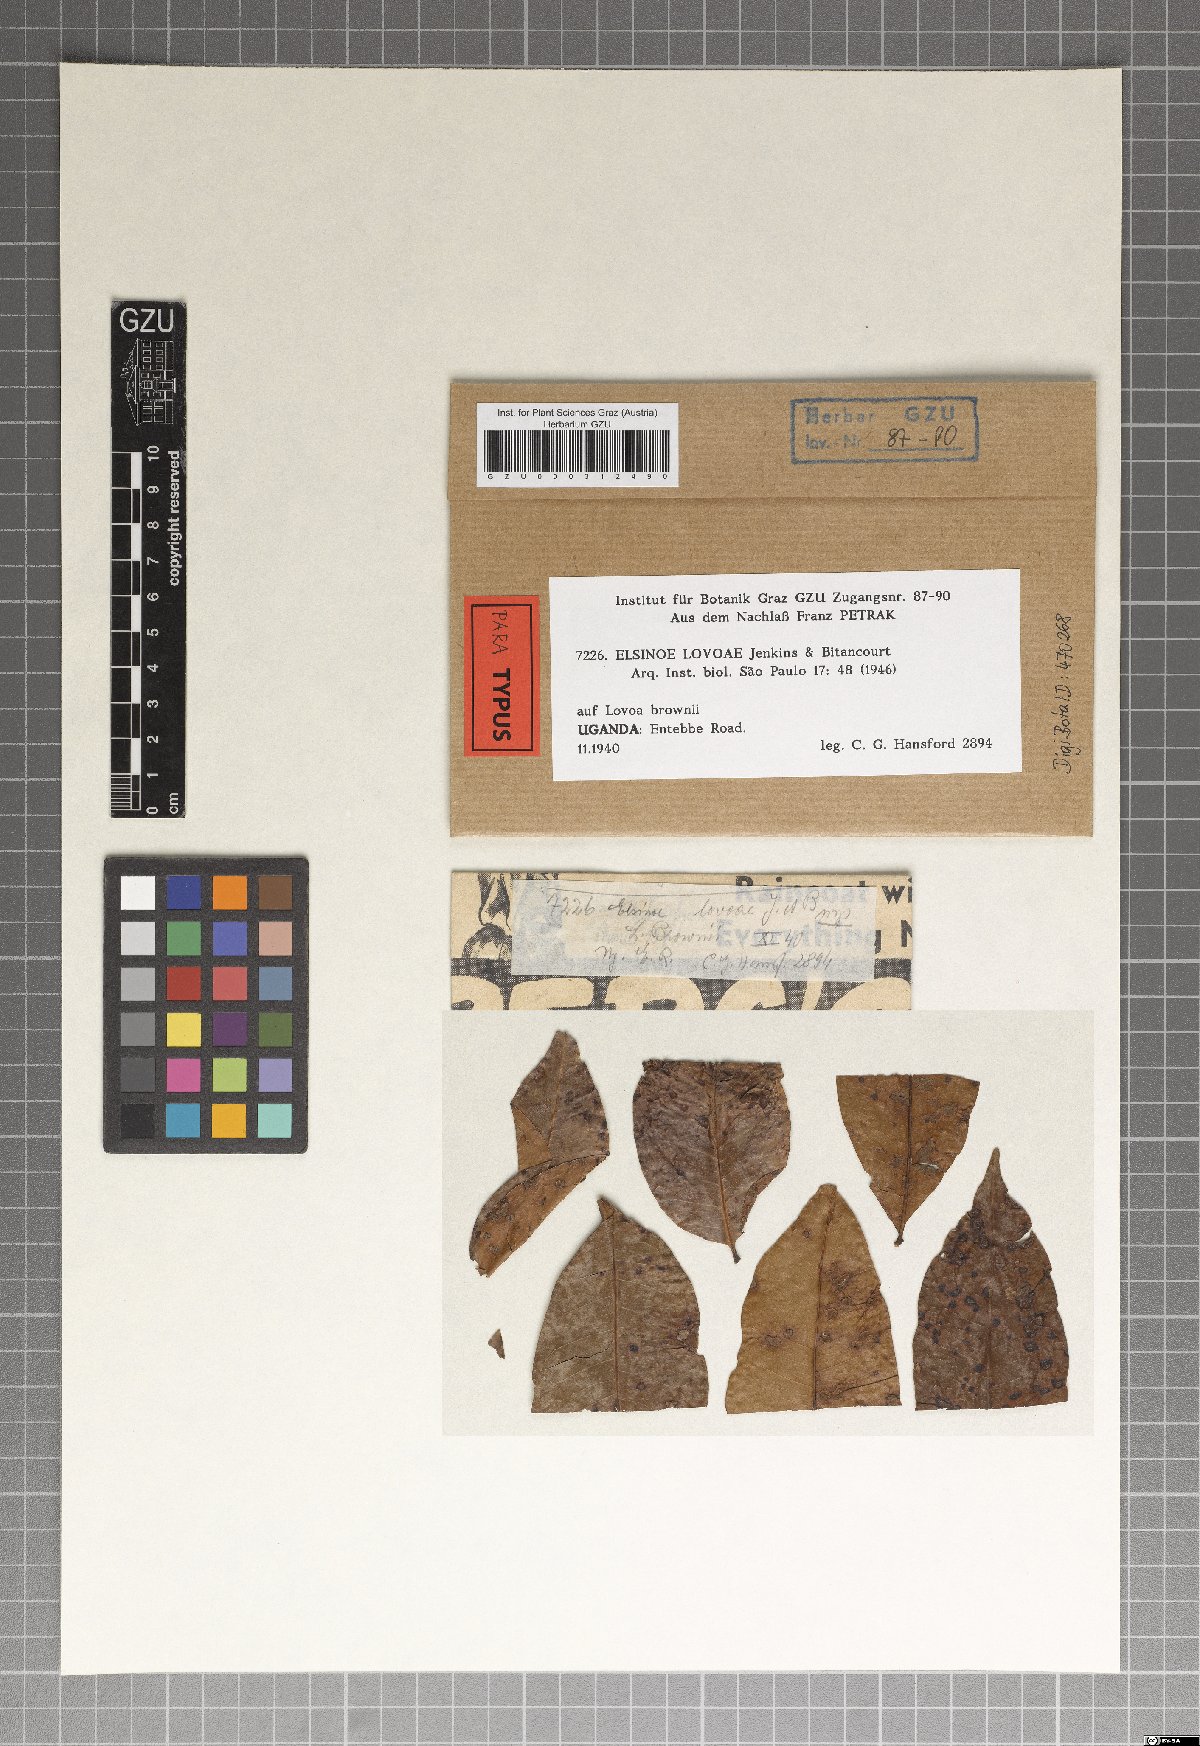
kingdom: Fungi
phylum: Ascomycota
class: Dothideomycetes
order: Myriangiales
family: Elsinoaceae
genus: Elsinoe
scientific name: Elsinoe lovoae
